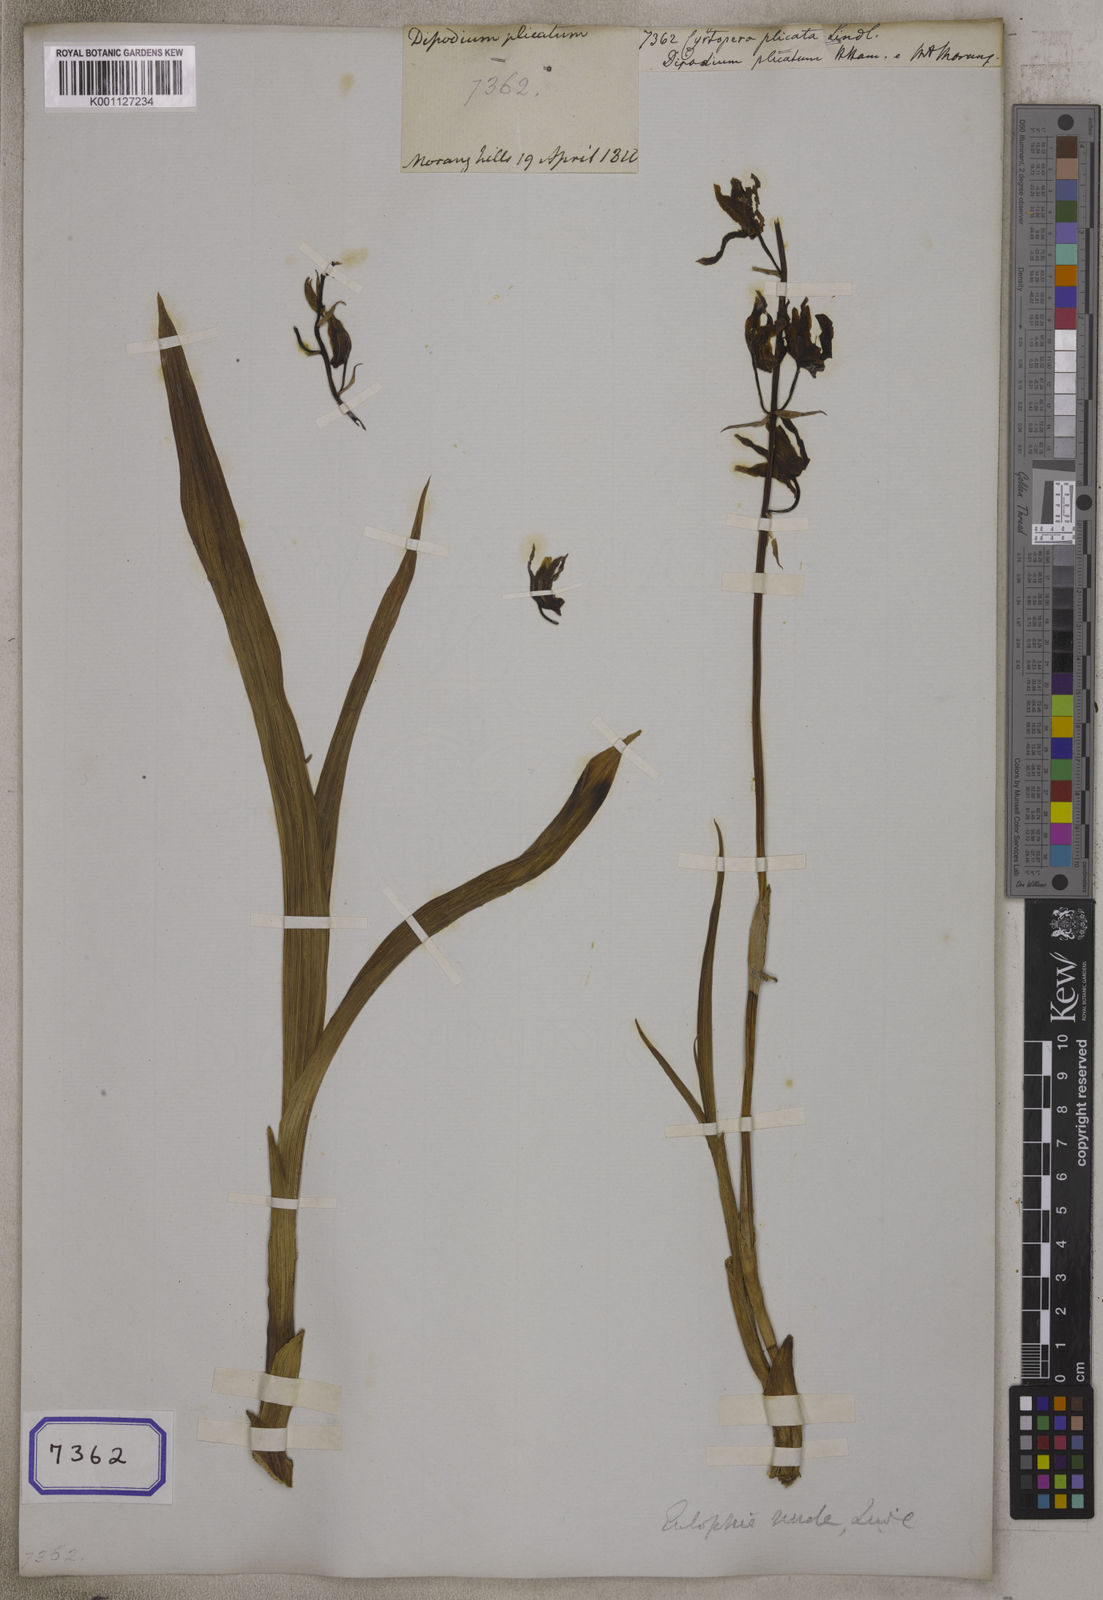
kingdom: Plantae
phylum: Tracheophyta
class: Liliopsida
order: Asparagales
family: Orchidaceae
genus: Eulophia
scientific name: Eulophia nuda
